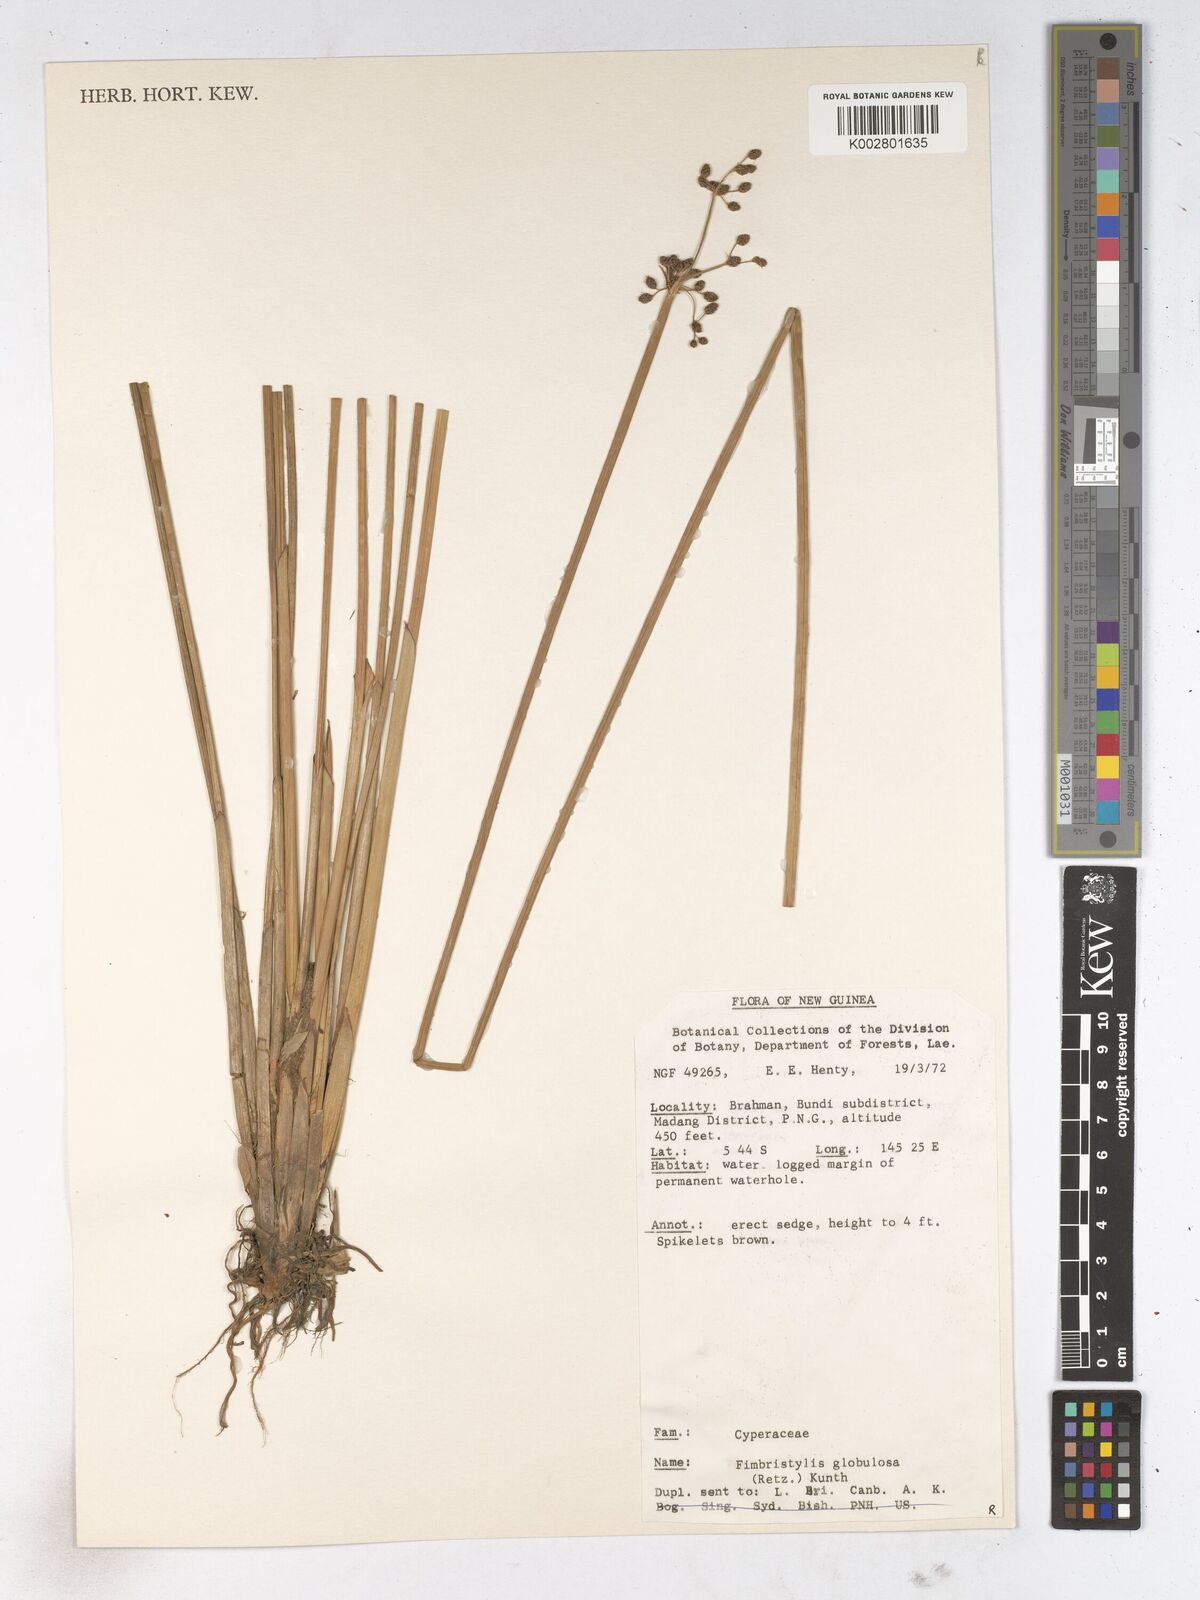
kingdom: Plantae
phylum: Tracheophyta
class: Liliopsida
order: Poales
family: Cyperaceae
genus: Fimbristylis
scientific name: Fimbristylis umbellaris
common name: Globular fimbristylis
